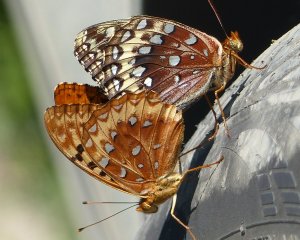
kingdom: Animalia
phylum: Arthropoda
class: Insecta
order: Lepidoptera
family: Nymphalidae
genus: Speyeria
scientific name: Speyeria cybele
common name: Great Spangled Fritillary
